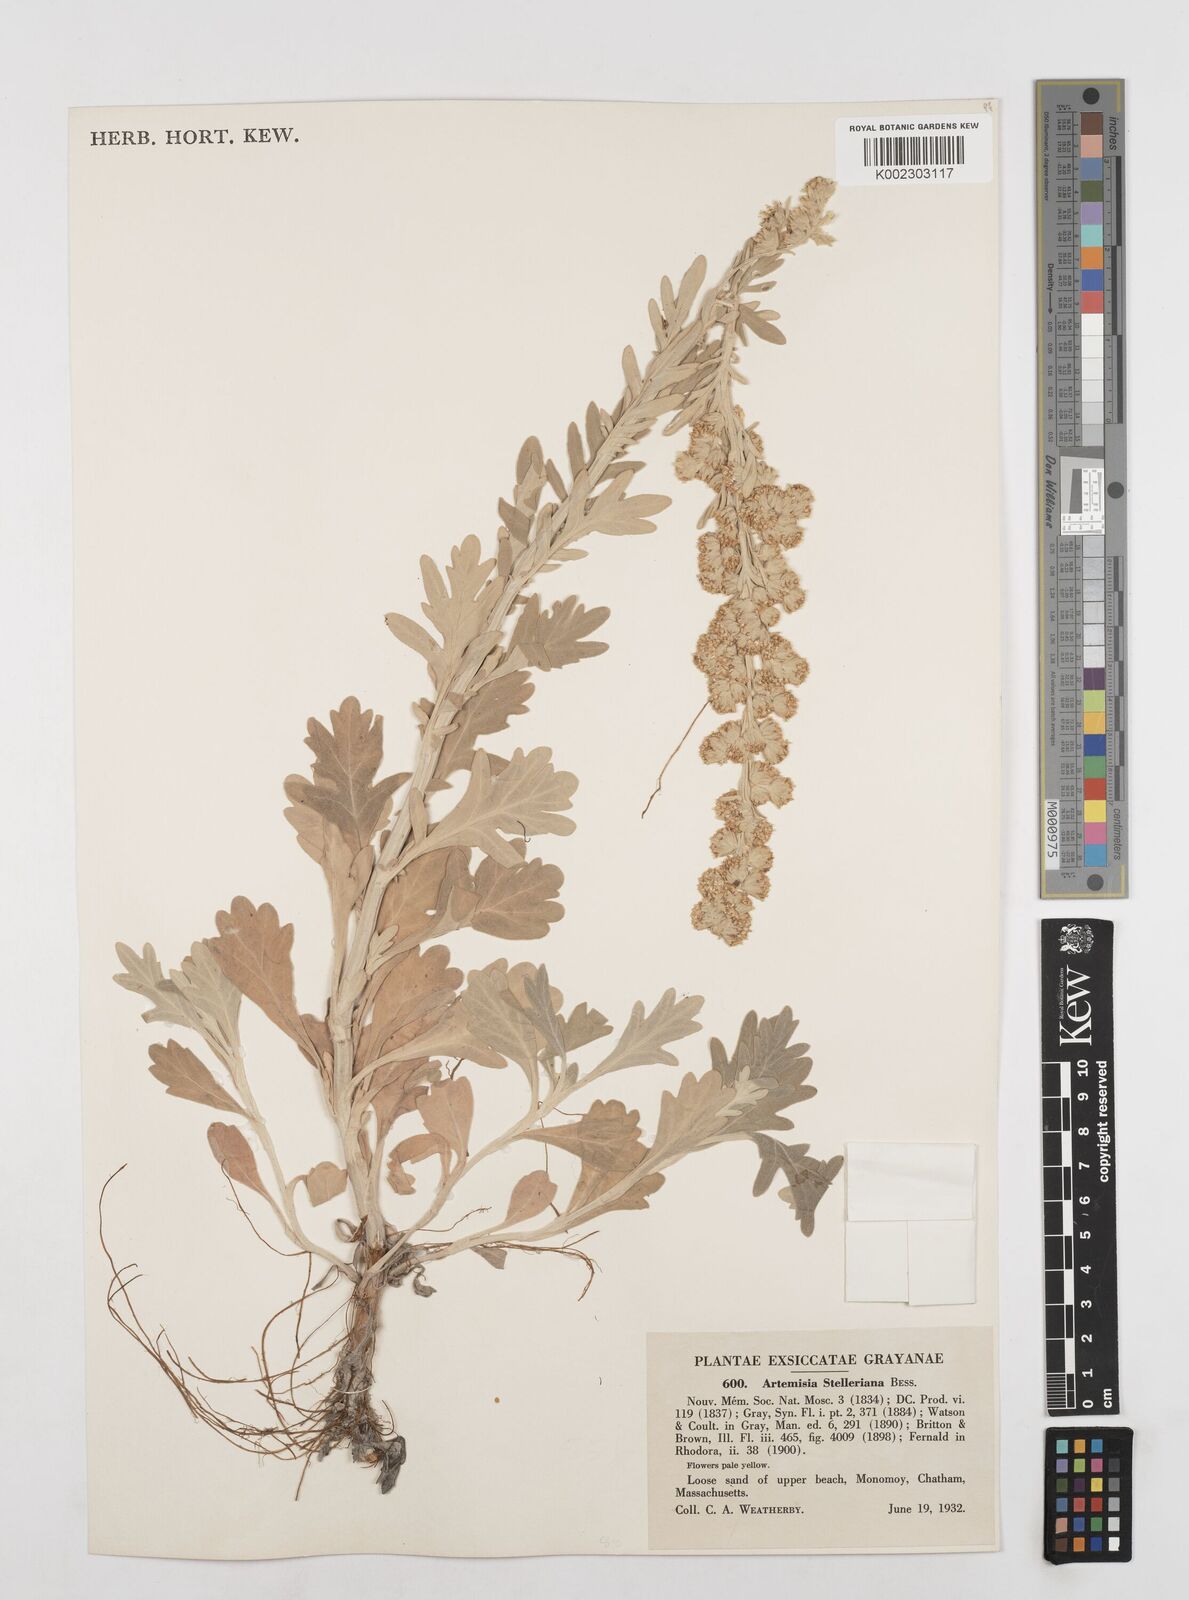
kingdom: Plantae
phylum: Tracheophyta
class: Magnoliopsida
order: Asterales
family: Asteraceae
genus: Artemisia
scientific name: Artemisia stelleriana
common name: Beach wormwood
